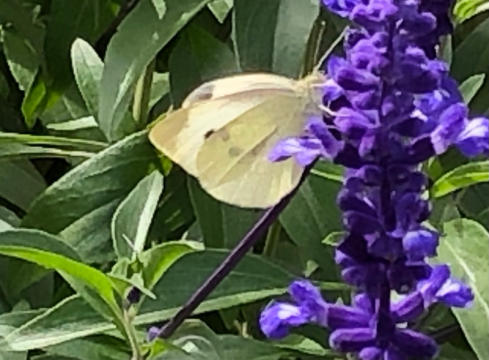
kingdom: Animalia
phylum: Arthropoda
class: Insecta
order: Lepidoptera
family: Pieridae
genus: Pieris
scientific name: Pieris rapae
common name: Cabbage White
